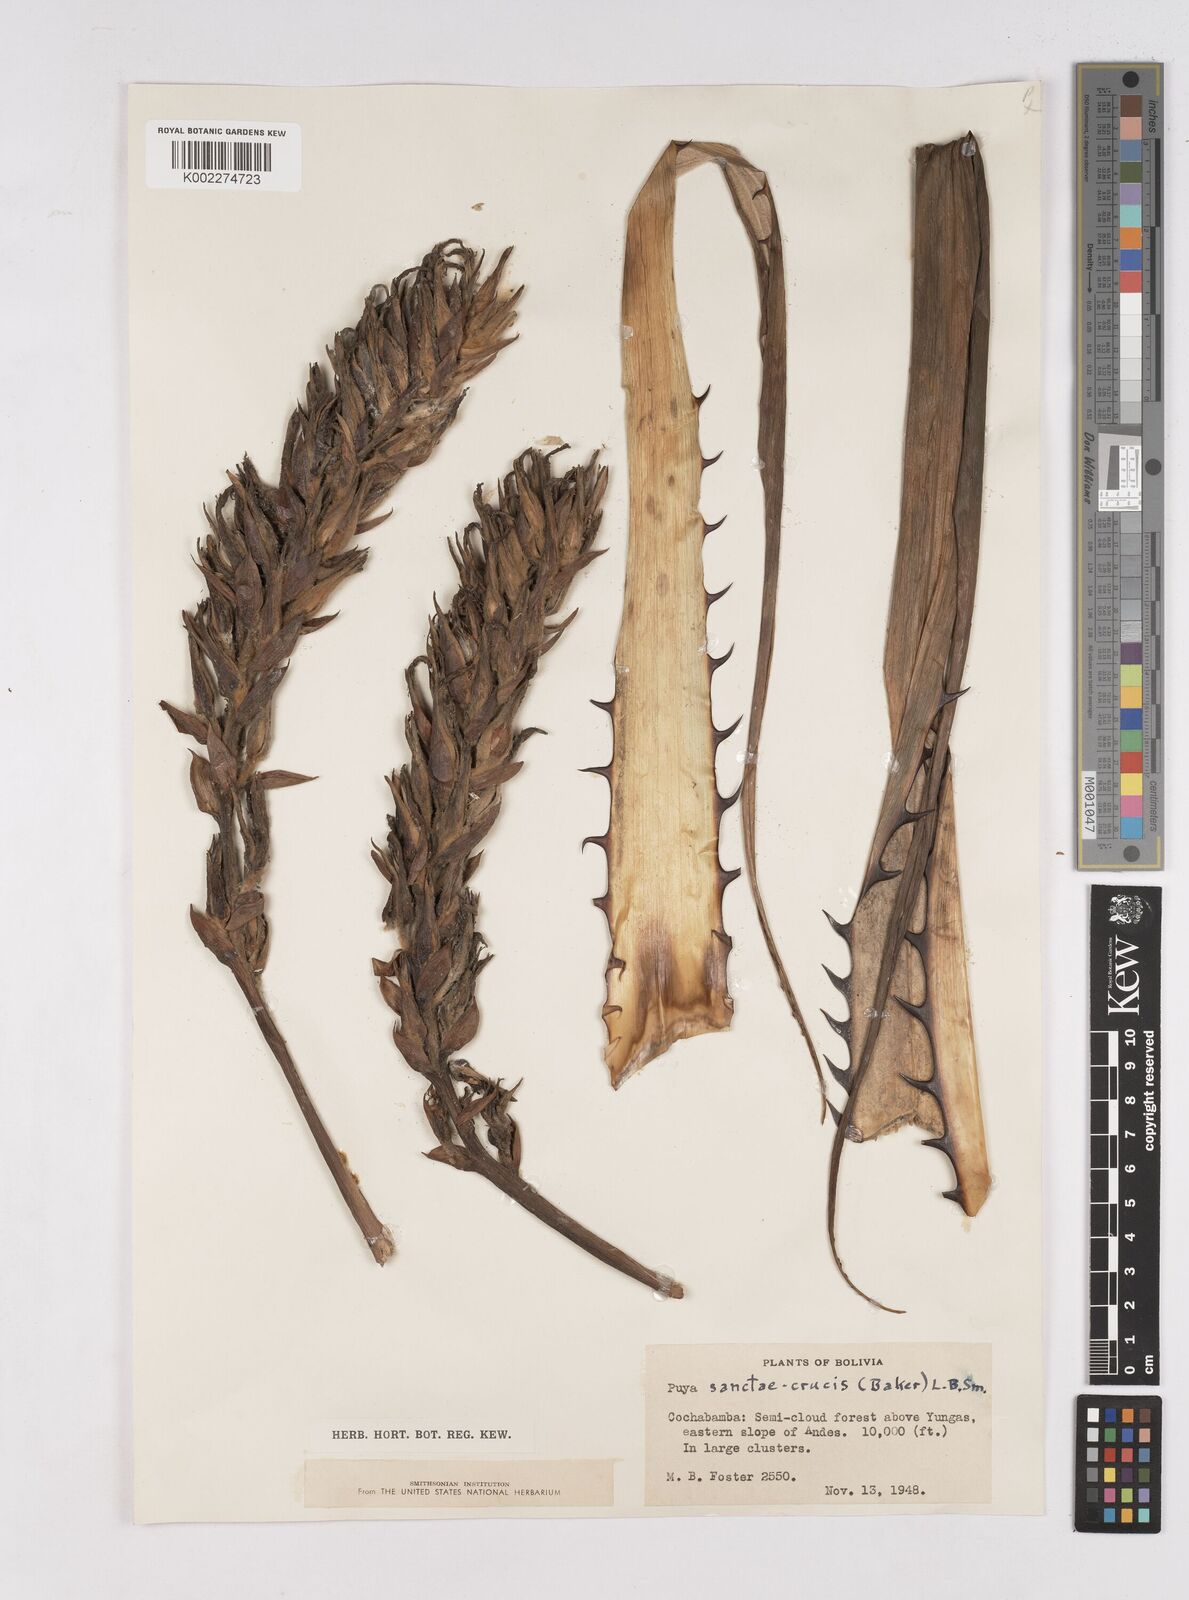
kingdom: Plantae
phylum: Tracheophyta
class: Liliopsida
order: Poales
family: Bromeliaceae
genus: Puya
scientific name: Puya sanctae-crucis
